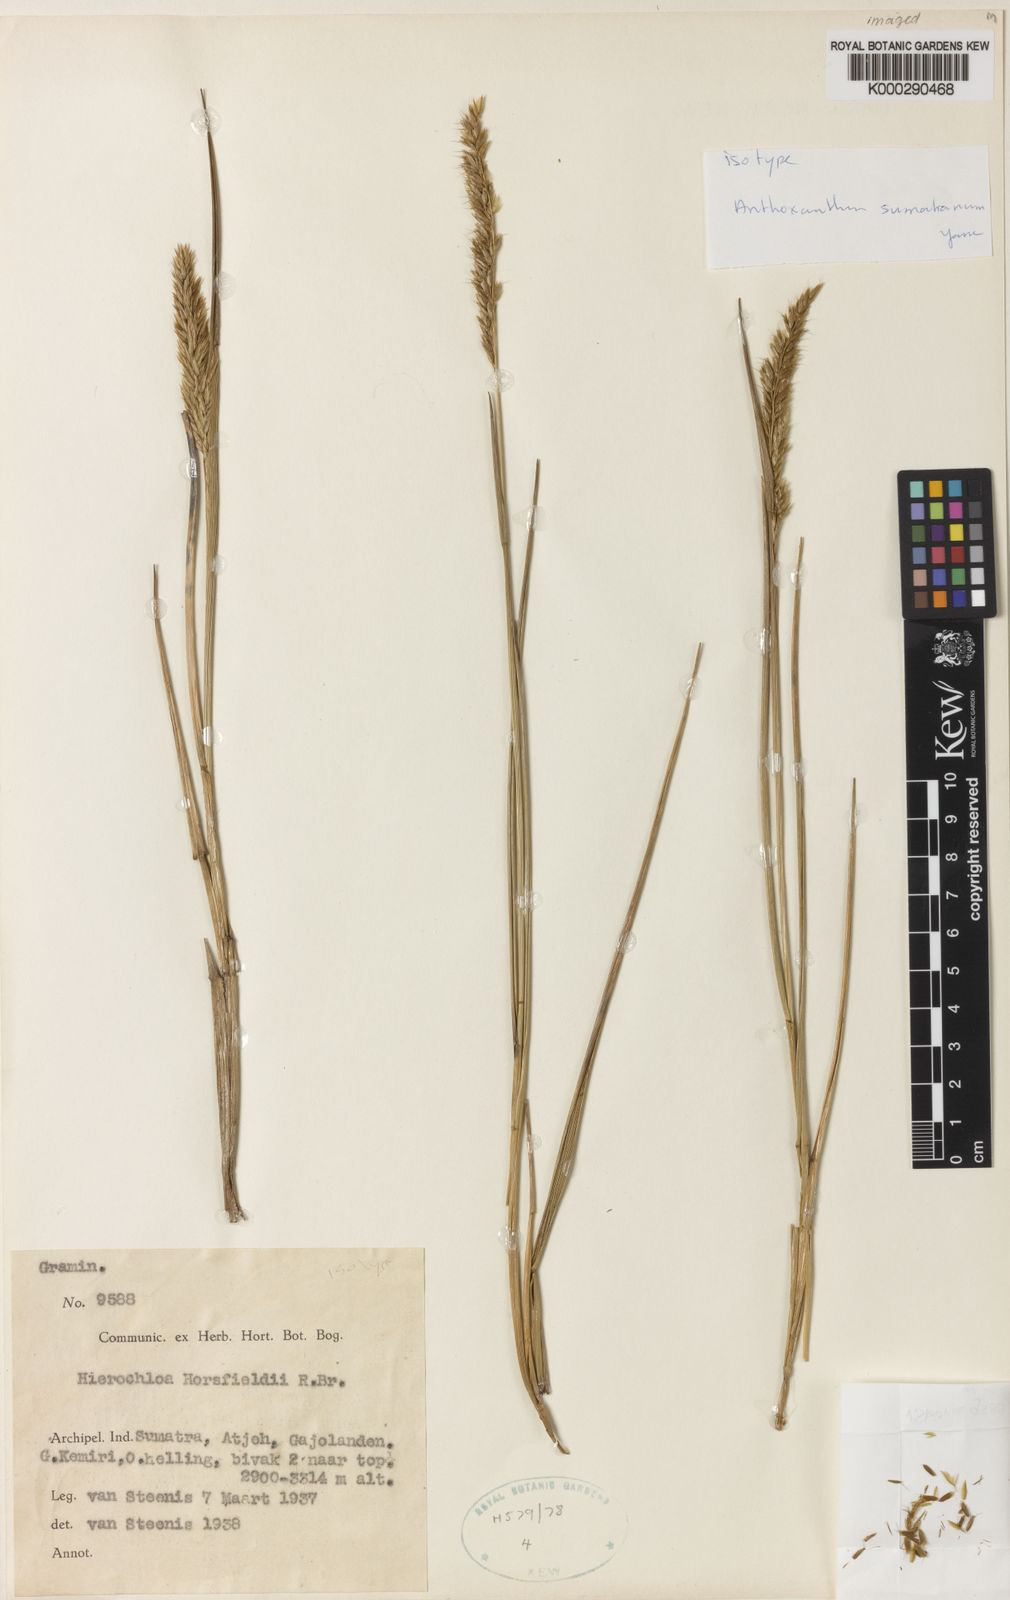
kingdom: Plantae
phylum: Tracheophyta
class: Liliopsida
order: Poales
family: Poaceae
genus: Anthoxanthum
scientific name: Anthoxanthum horsfieldii
